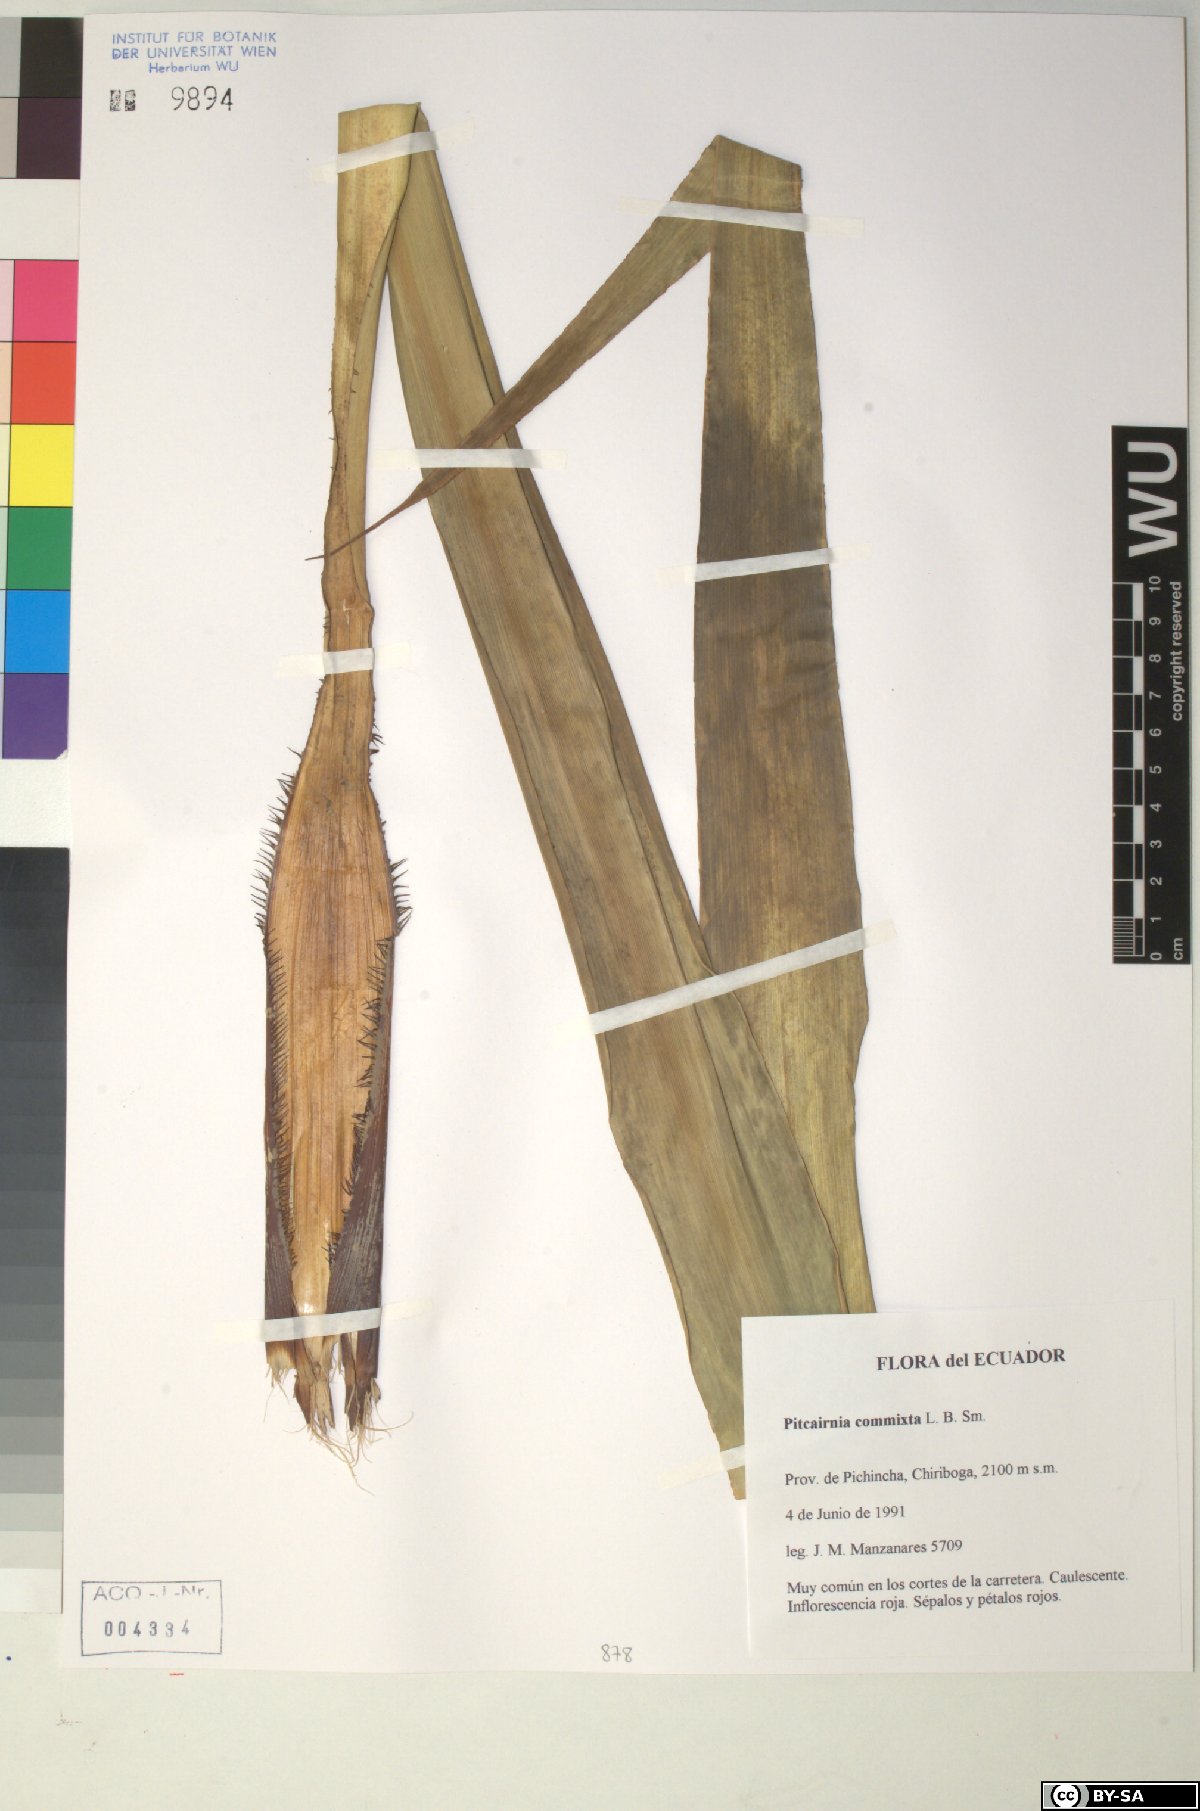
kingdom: Plantae
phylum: Tracheophyta
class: Liliopsida
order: Poales
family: Bromeliaceae
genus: Pitcairnia
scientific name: Pitcairnia commixta
